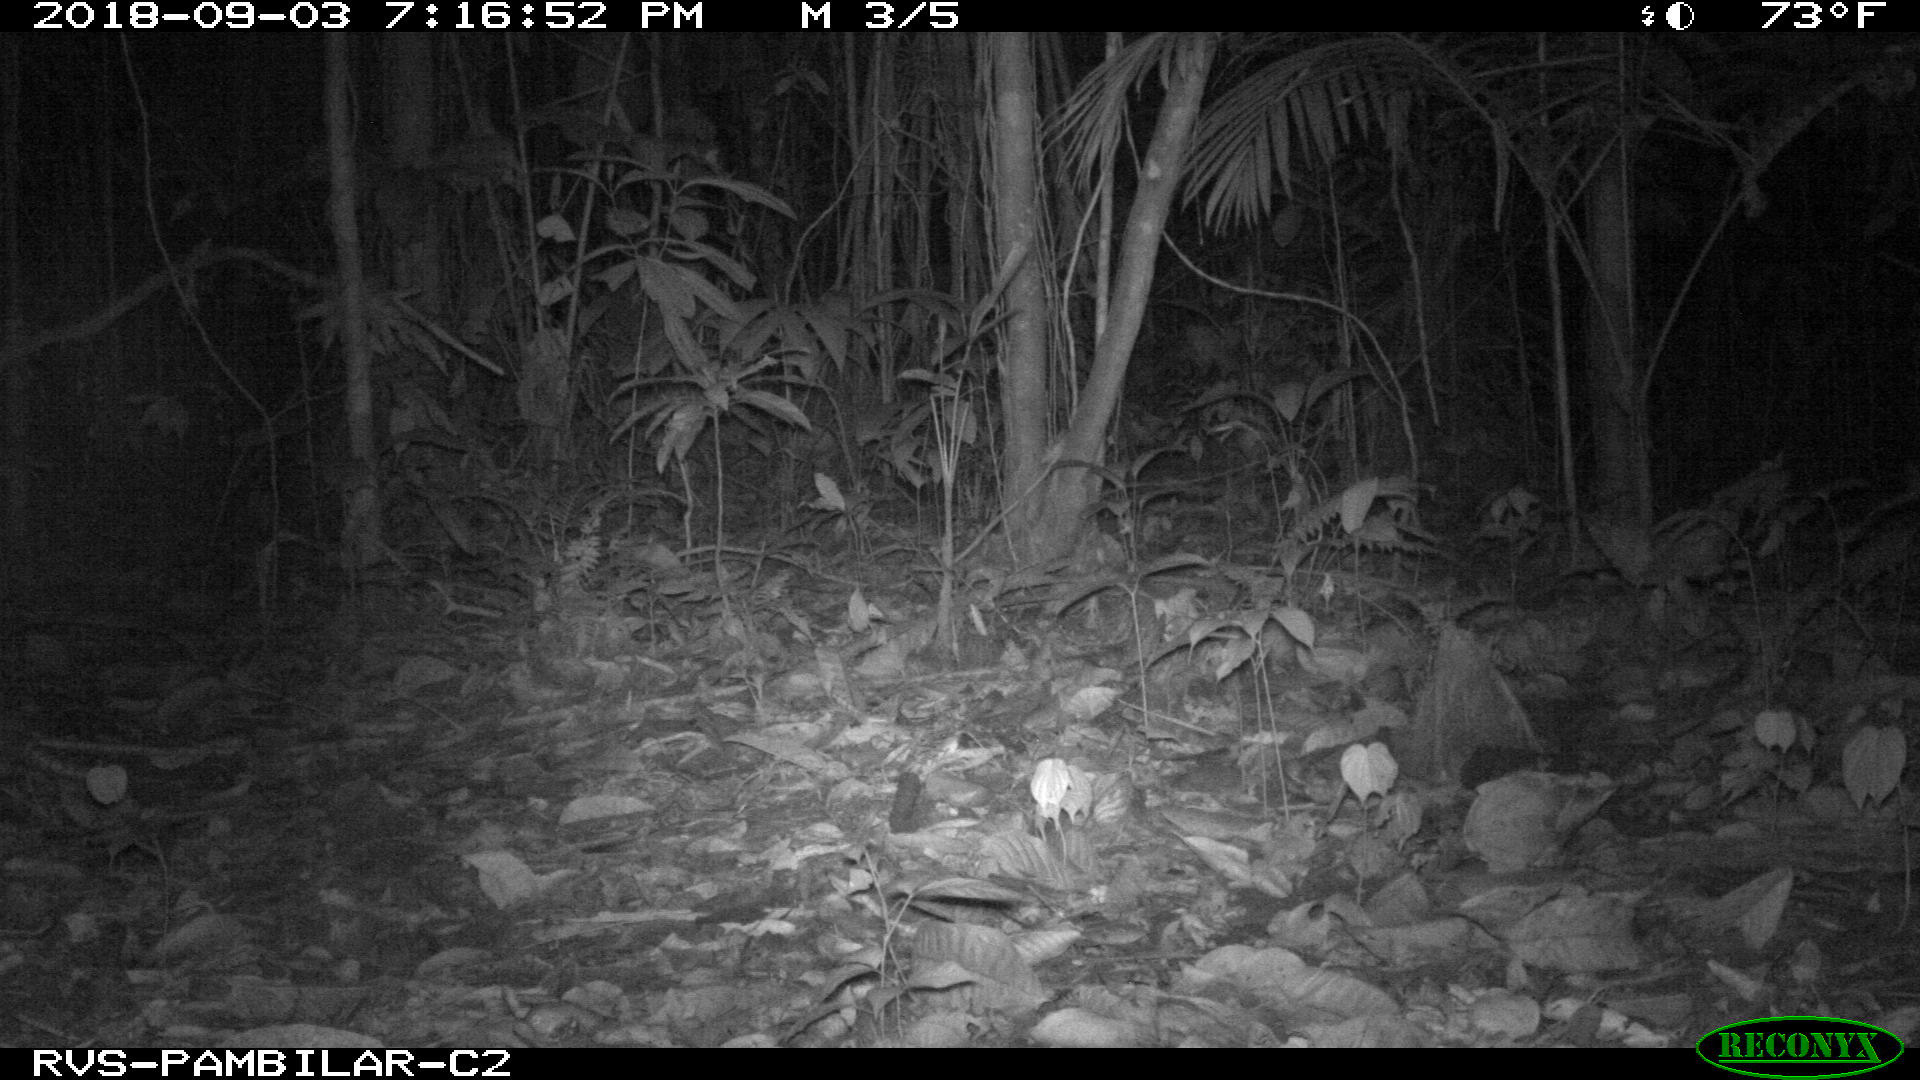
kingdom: Animalia
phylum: Chordata
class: Mammalia
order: Cingulata
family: Dasypodidae
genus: Dasypus
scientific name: Dasypus novemcinctus
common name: Nine-banded armadillo
